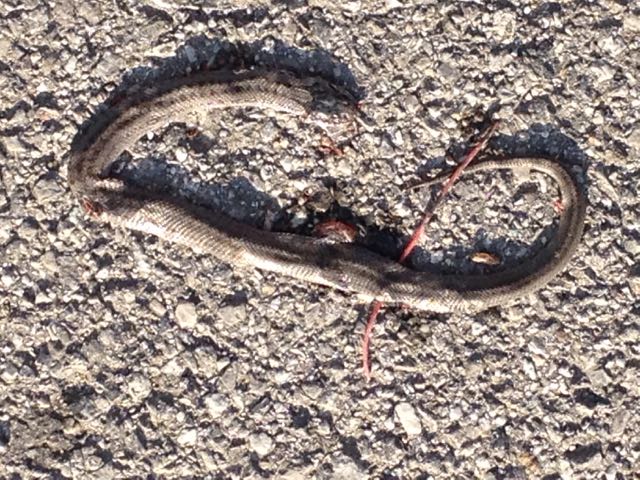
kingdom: Animalia
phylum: Chordata
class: Squamata
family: Colubridae
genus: Coronella
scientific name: Coronella austriaca
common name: Smooth snake
